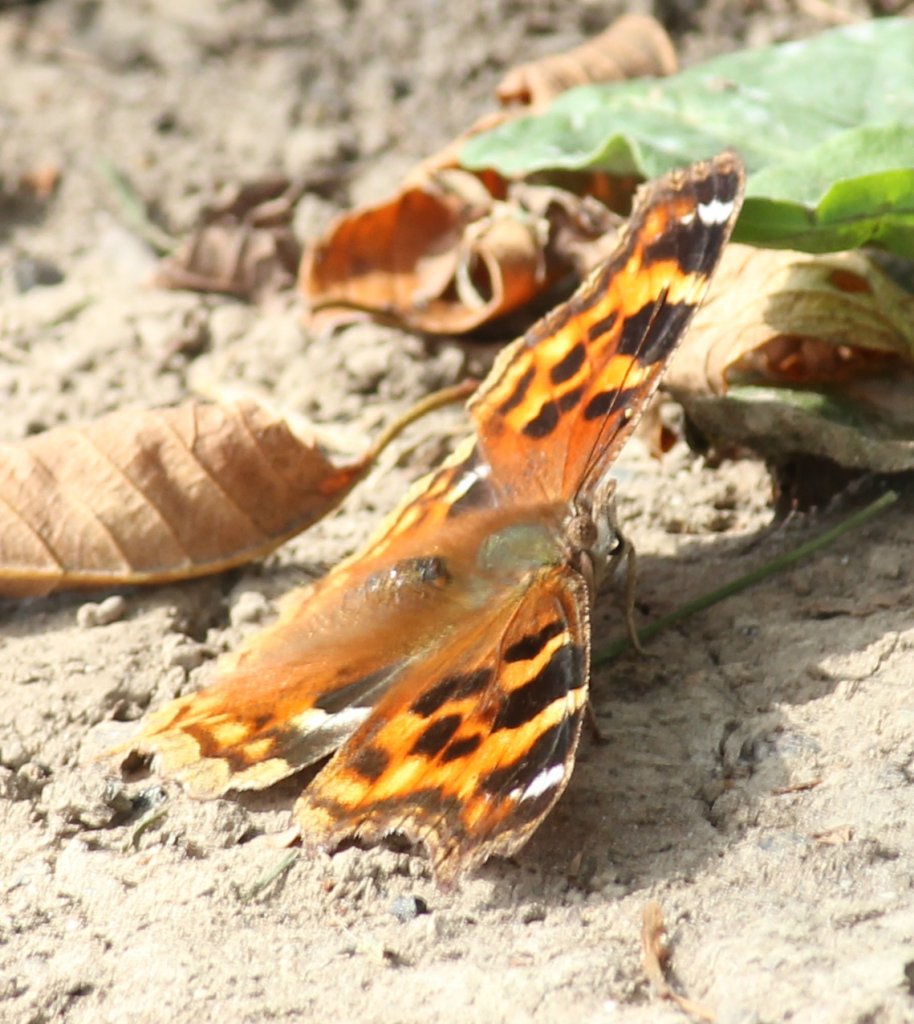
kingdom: Animalia
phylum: Arthropoda
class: Insecta
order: Lepidoptera
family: Nymphalidae
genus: Polygonia
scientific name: Polygonia vaualbum
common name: Compton Tortoiseshell
